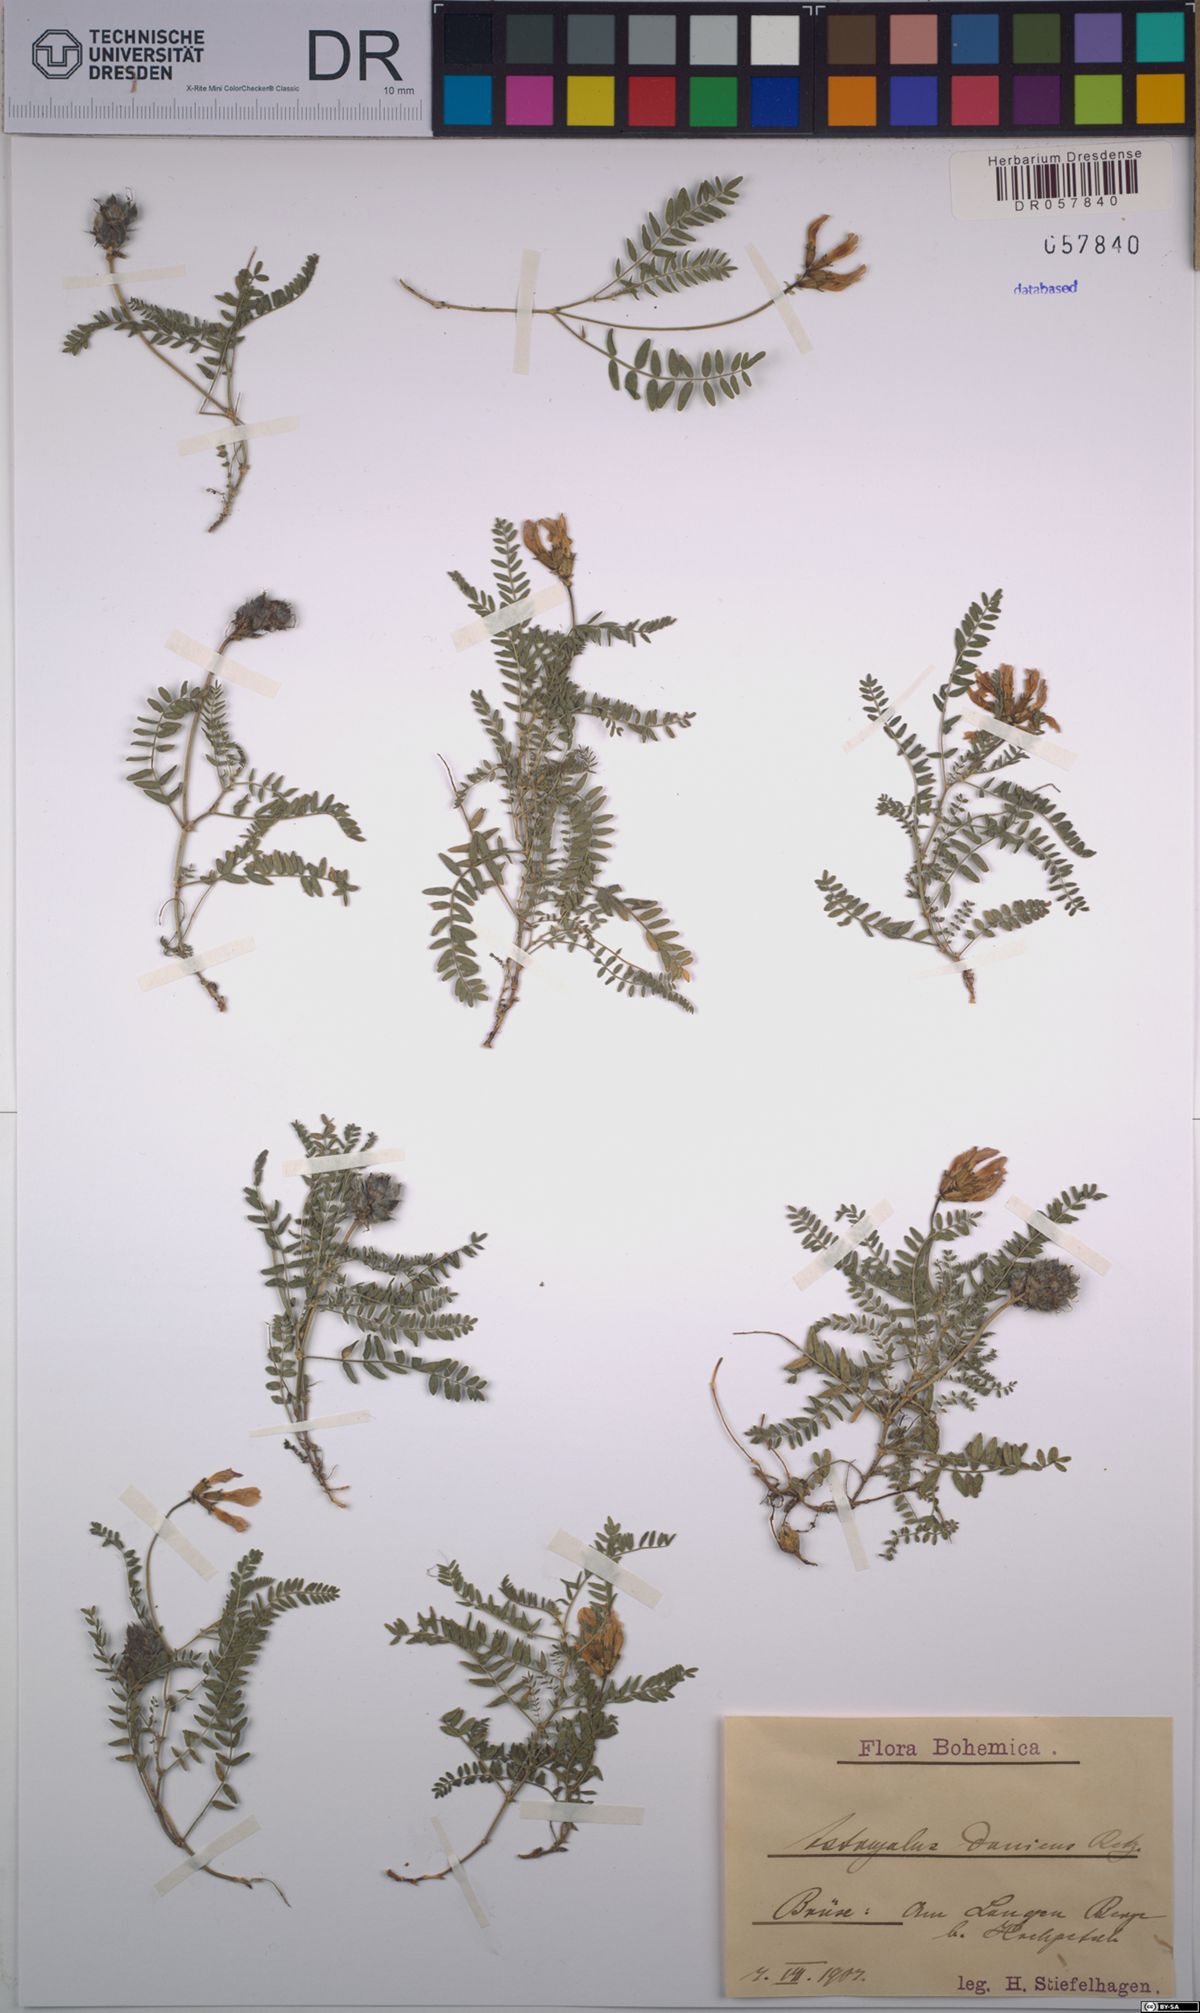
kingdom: Plantae
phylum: Tracheophyta
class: Magnoliopsida
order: Fabales
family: Fabaceae
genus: Astragalus
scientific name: Astragalus danicus
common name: Purple milk-vetch
